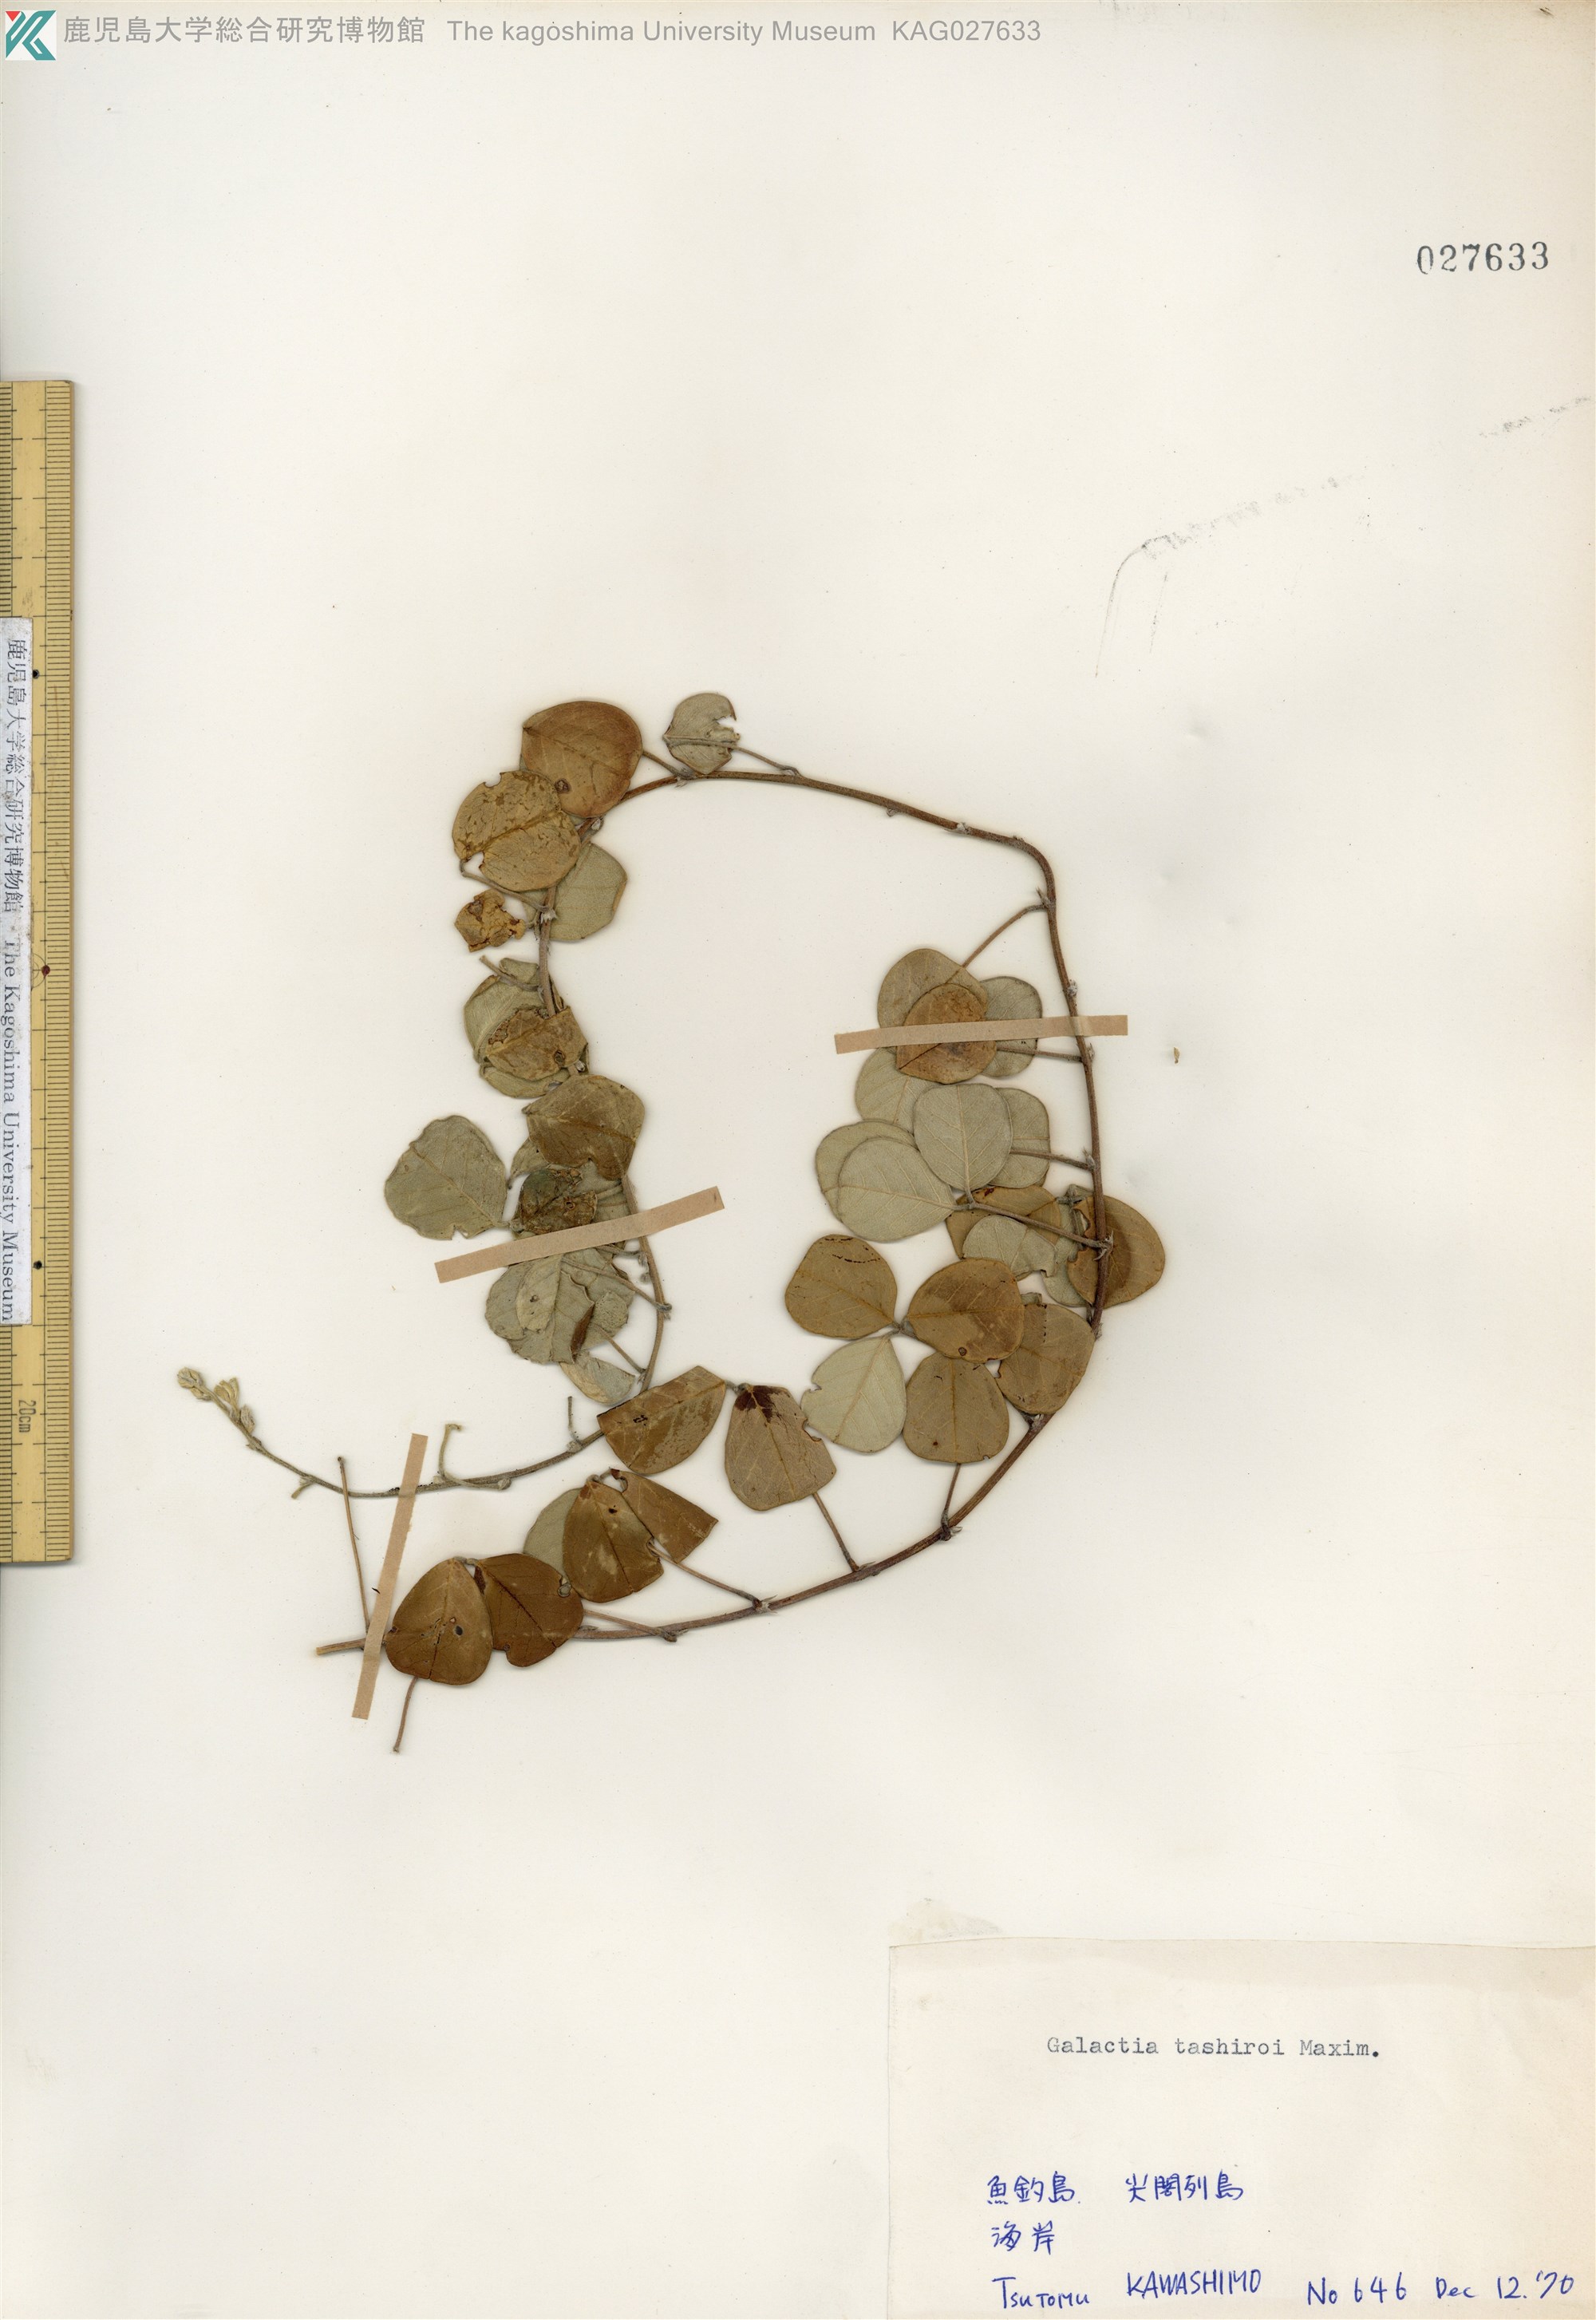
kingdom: Plantae
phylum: Tracheophyta
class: Magnoliopsida
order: Fabales
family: Fabaceae
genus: Galactia
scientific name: Galactia tashiroi
